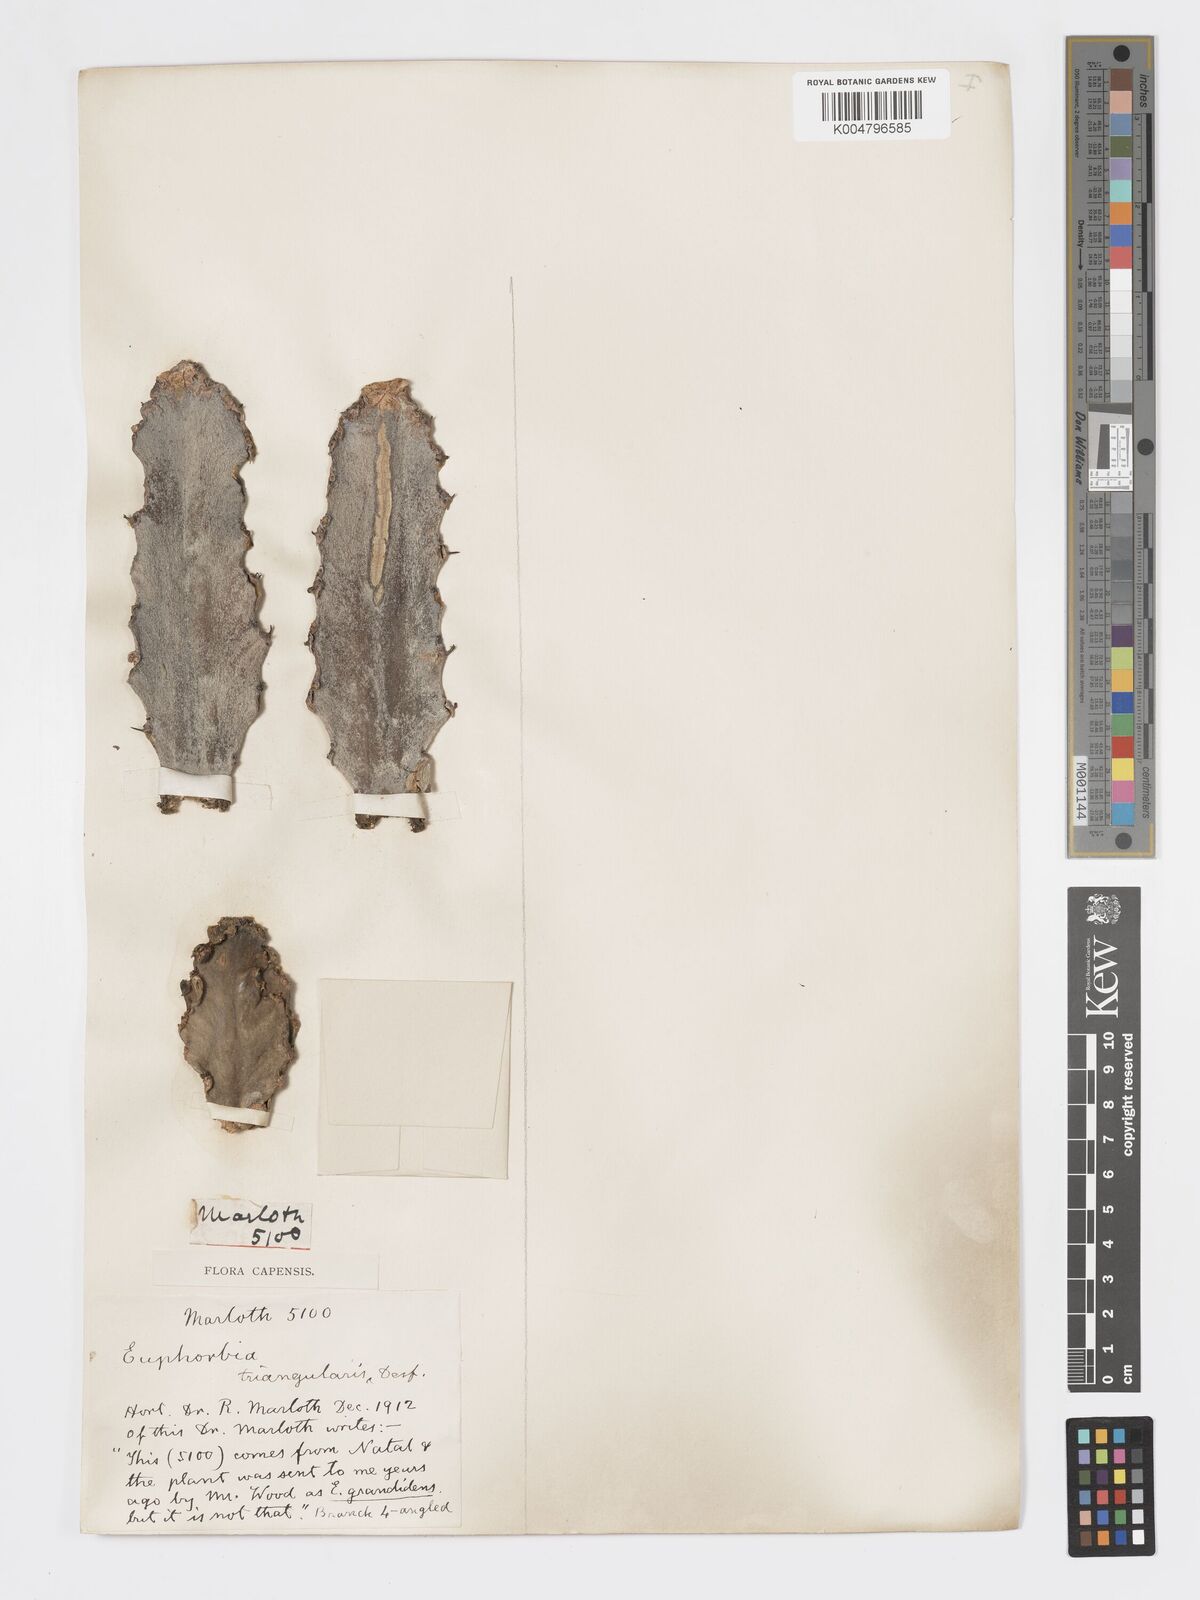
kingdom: Plantae
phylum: Tracheophyta
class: Magnoliopsida
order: Malpighiales
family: Euphorbiaceae
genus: Euphorbia
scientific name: Euphorbia triangularis
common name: Chandelier tree
